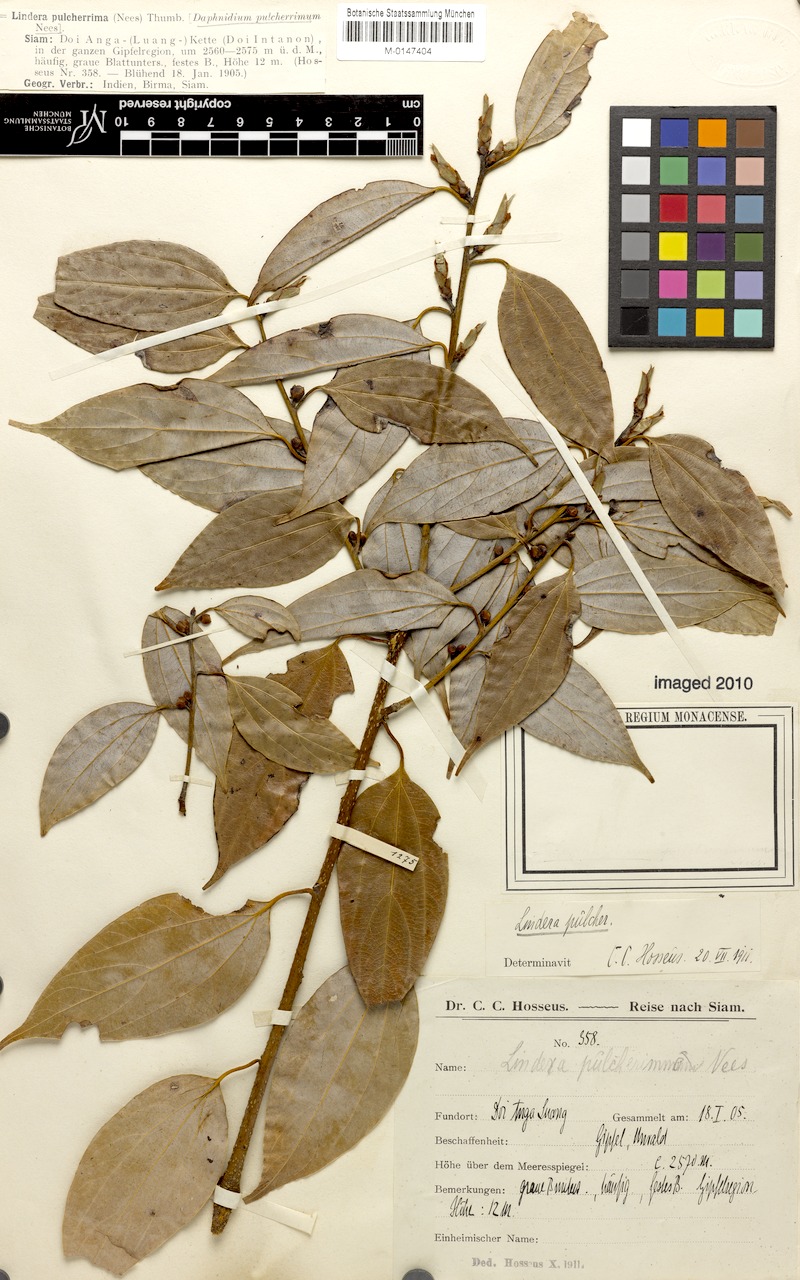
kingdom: Plantae
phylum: Tracheophyta
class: Magnoliopsida
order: Laurales
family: Lauraceae
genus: Lindera
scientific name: Lindera thomsonii
